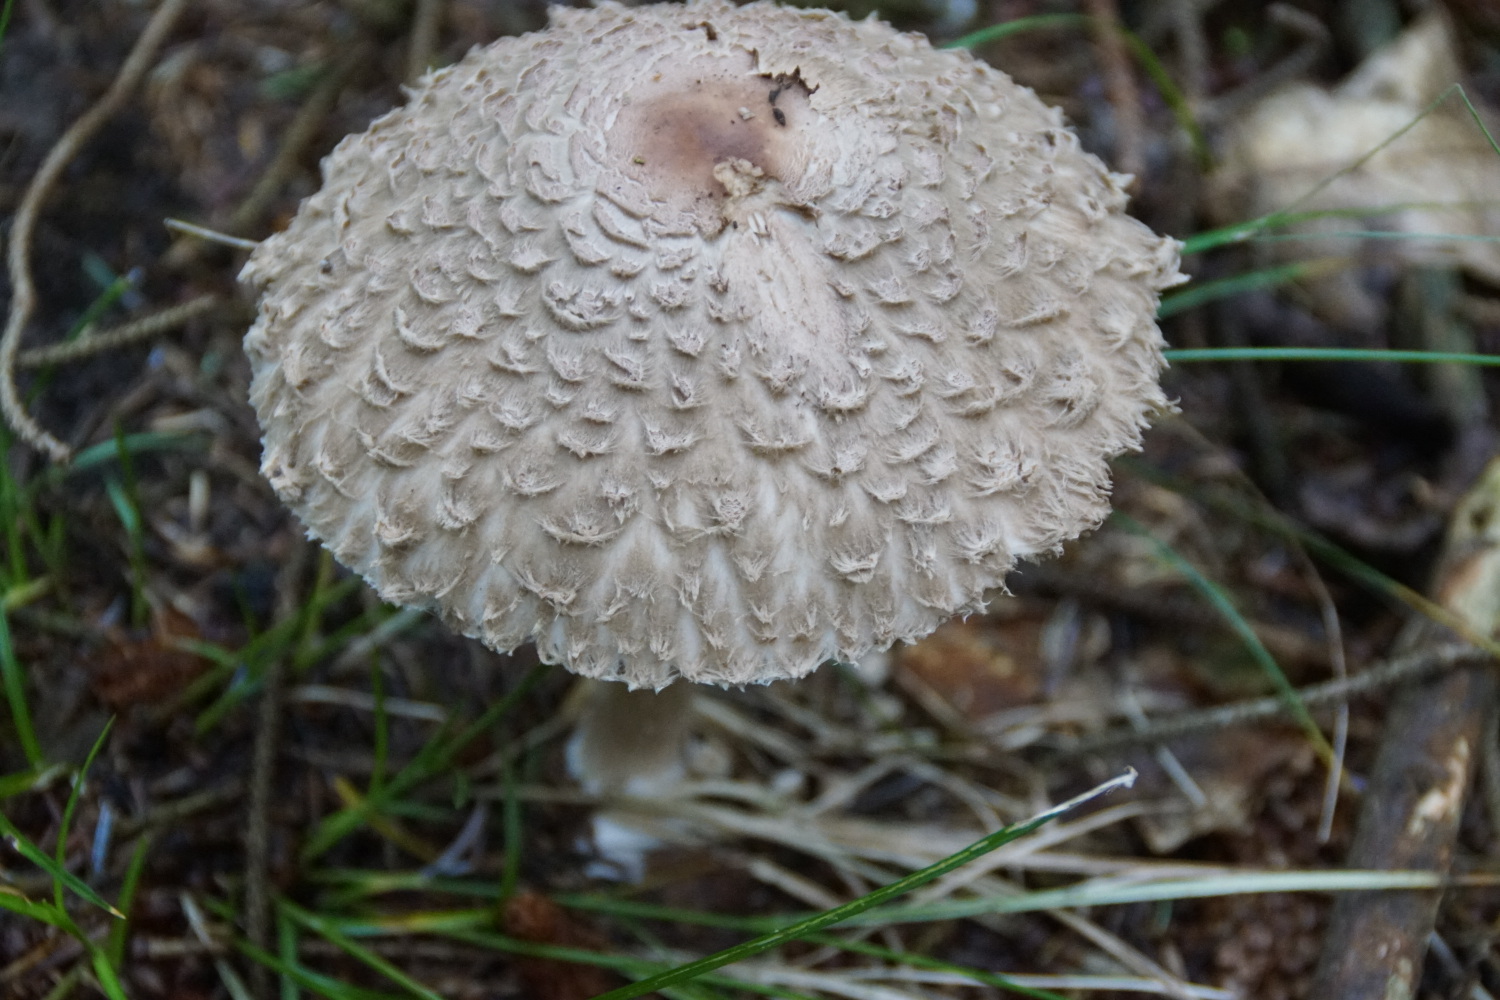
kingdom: Fungi
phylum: Basidiomycota
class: Agaricomycetes
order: Agaricales
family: Agaricaceae
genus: Chlorophyllum
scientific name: Chlorophyllum olivieri
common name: almindelig rabarberhat
